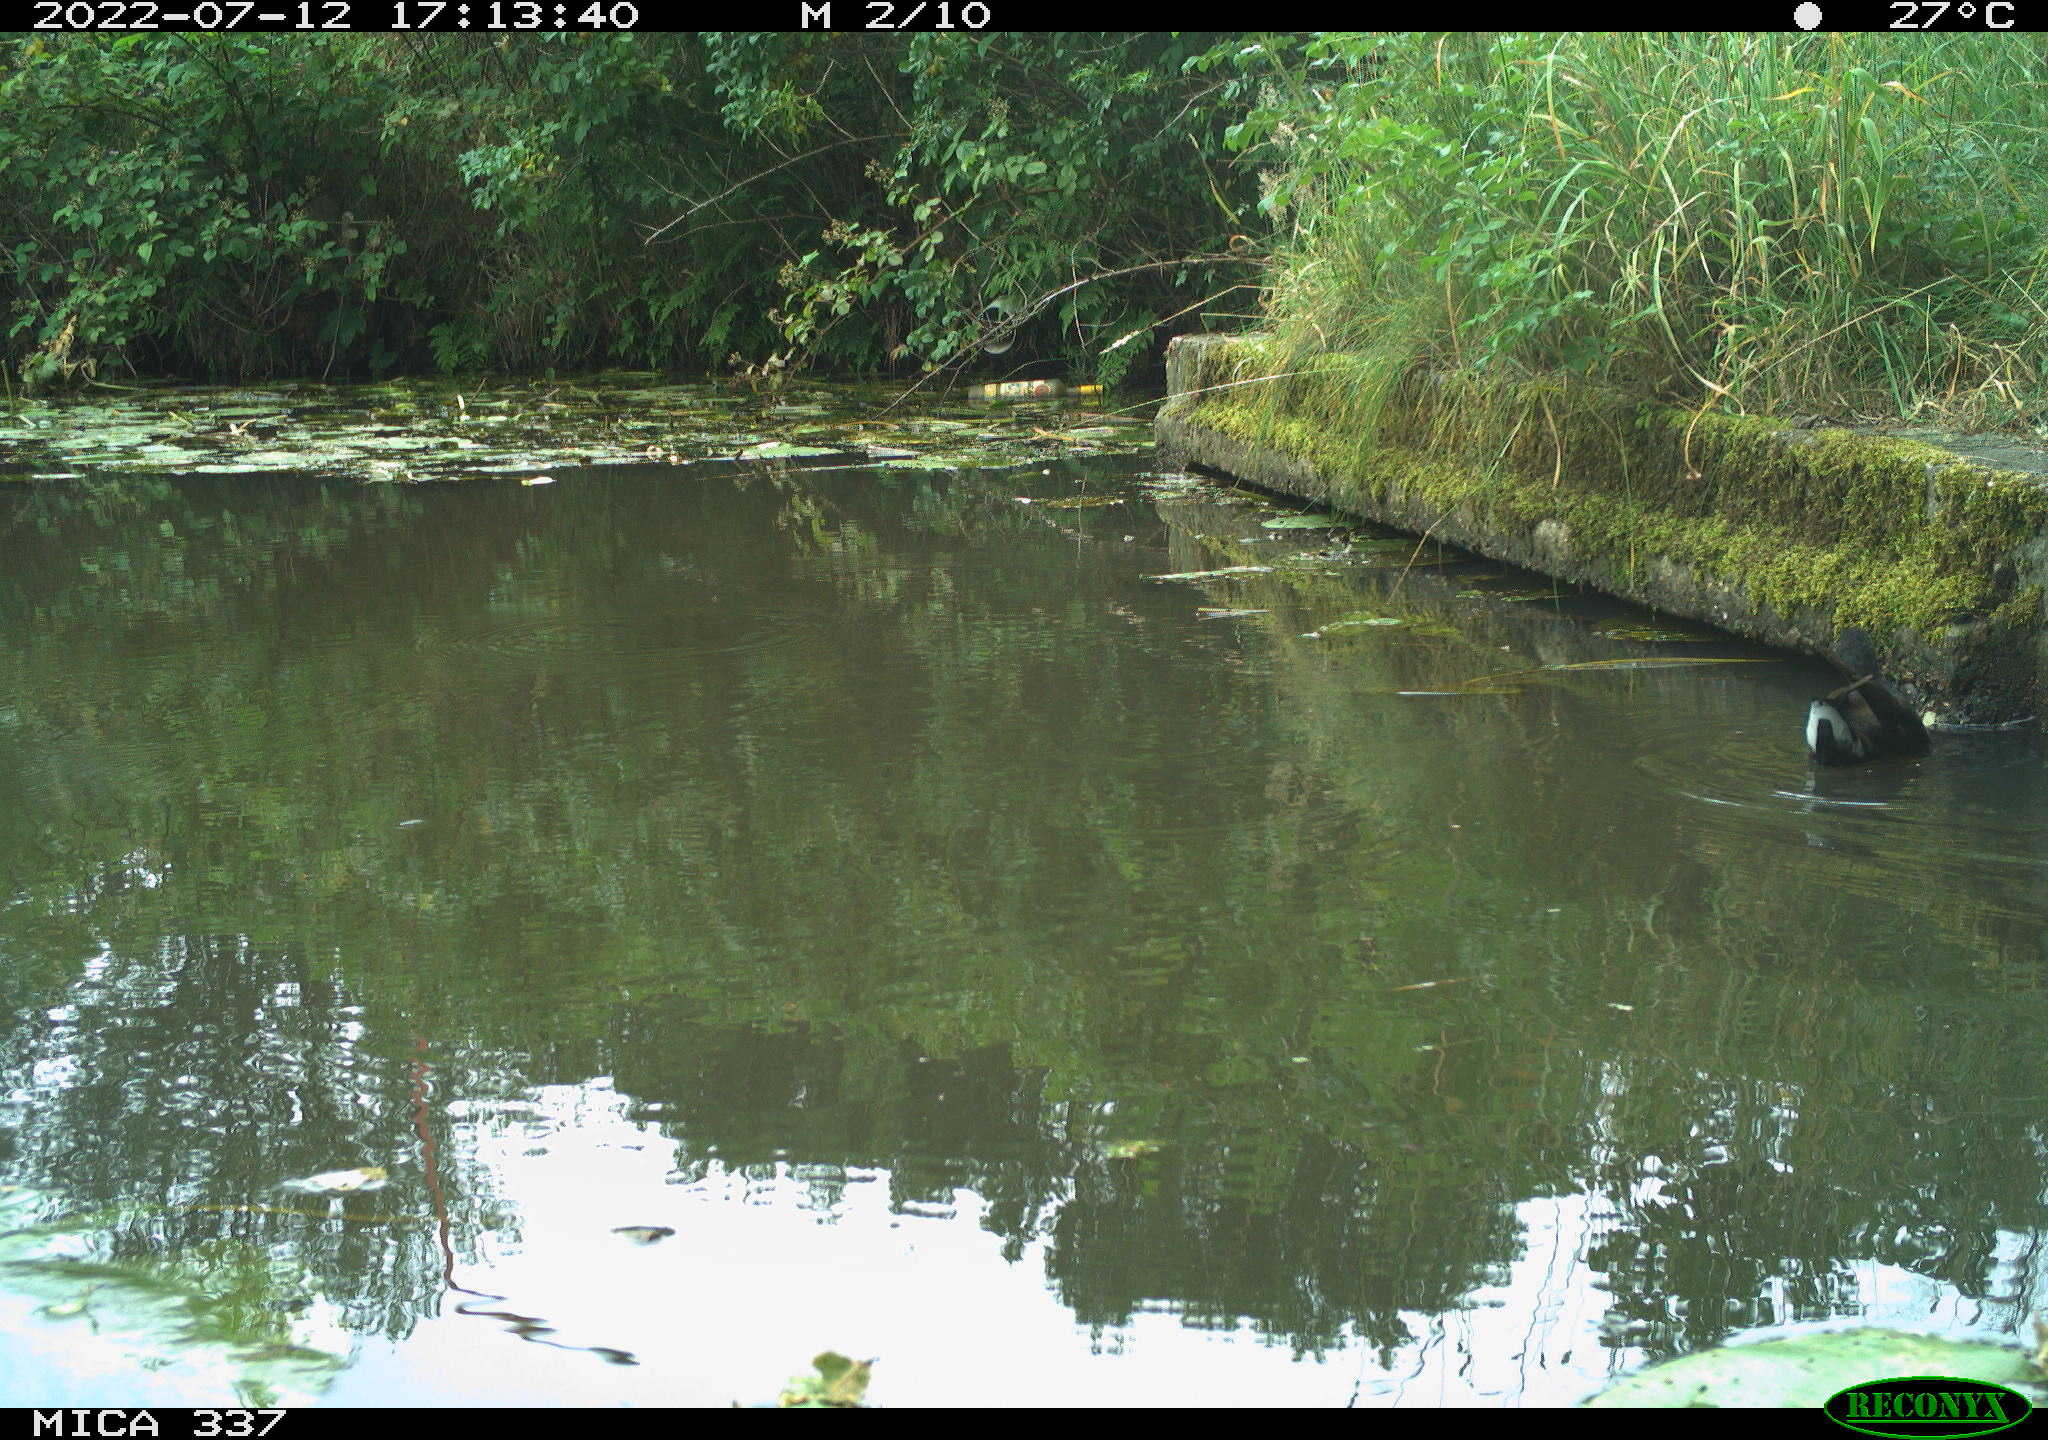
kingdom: Animalia
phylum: Chordata
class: Aves
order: Gruiformes
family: Rallidae
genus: Gallinula
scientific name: Gallinula chloropus
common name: Common moorhen
